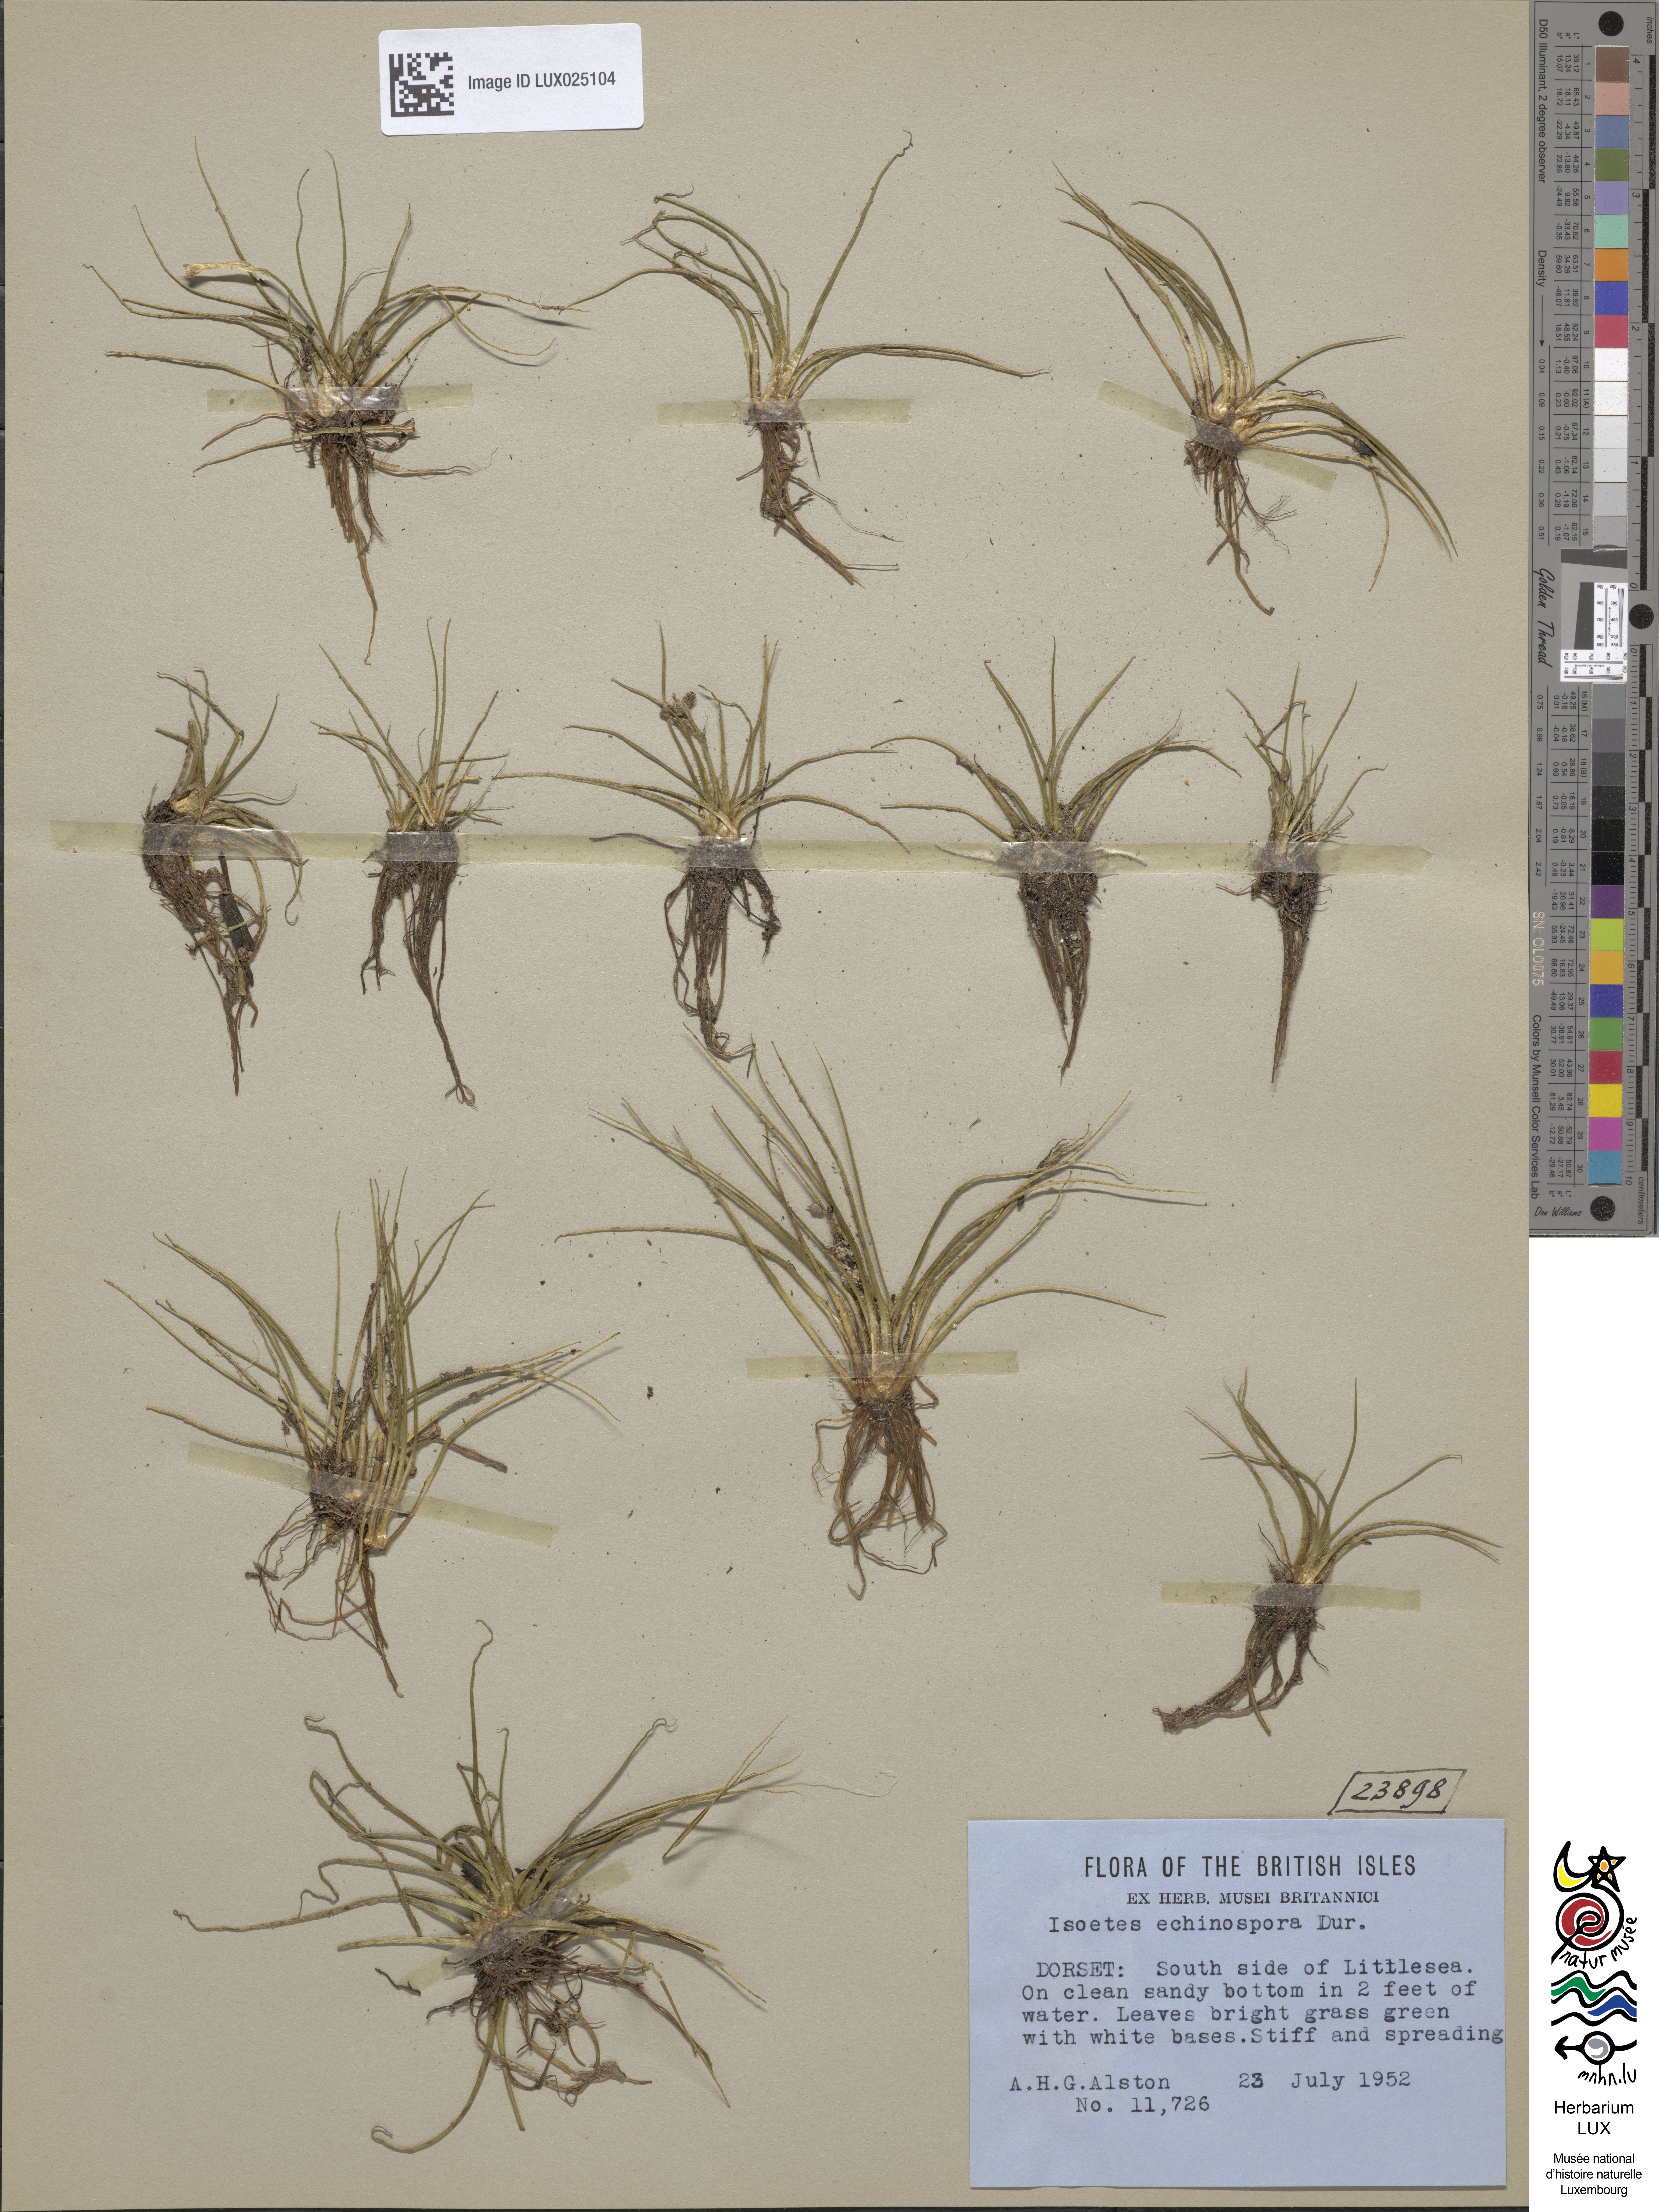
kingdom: Plantae
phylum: Tracheophyta
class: Lycopodiopsida
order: Isoetales
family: Isoetaceae
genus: Isoetes
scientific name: Isoetes lacustris
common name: Common quillwort
